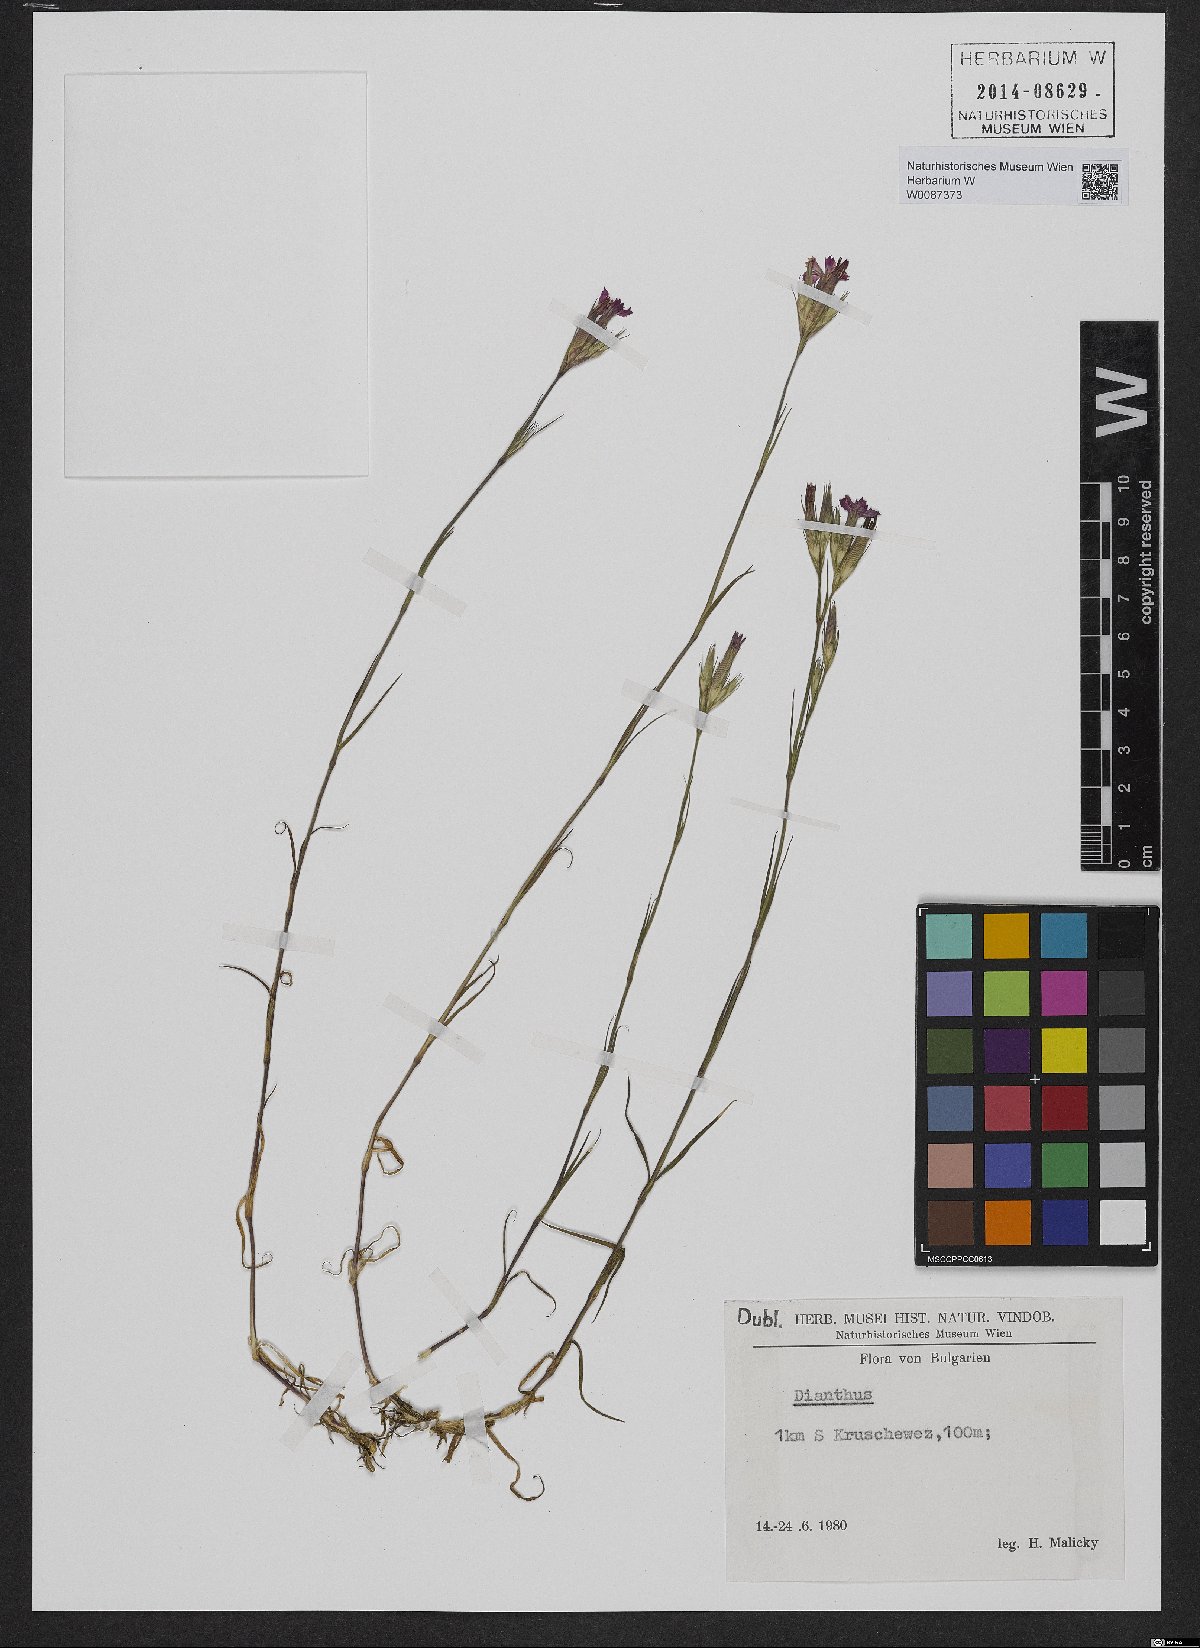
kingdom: Plantae
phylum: Tracheophyta
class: Magnoliopsida
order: Caryophyllales
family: Caryophyllaceae
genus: Dianthus
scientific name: Dianthus corymbosus
